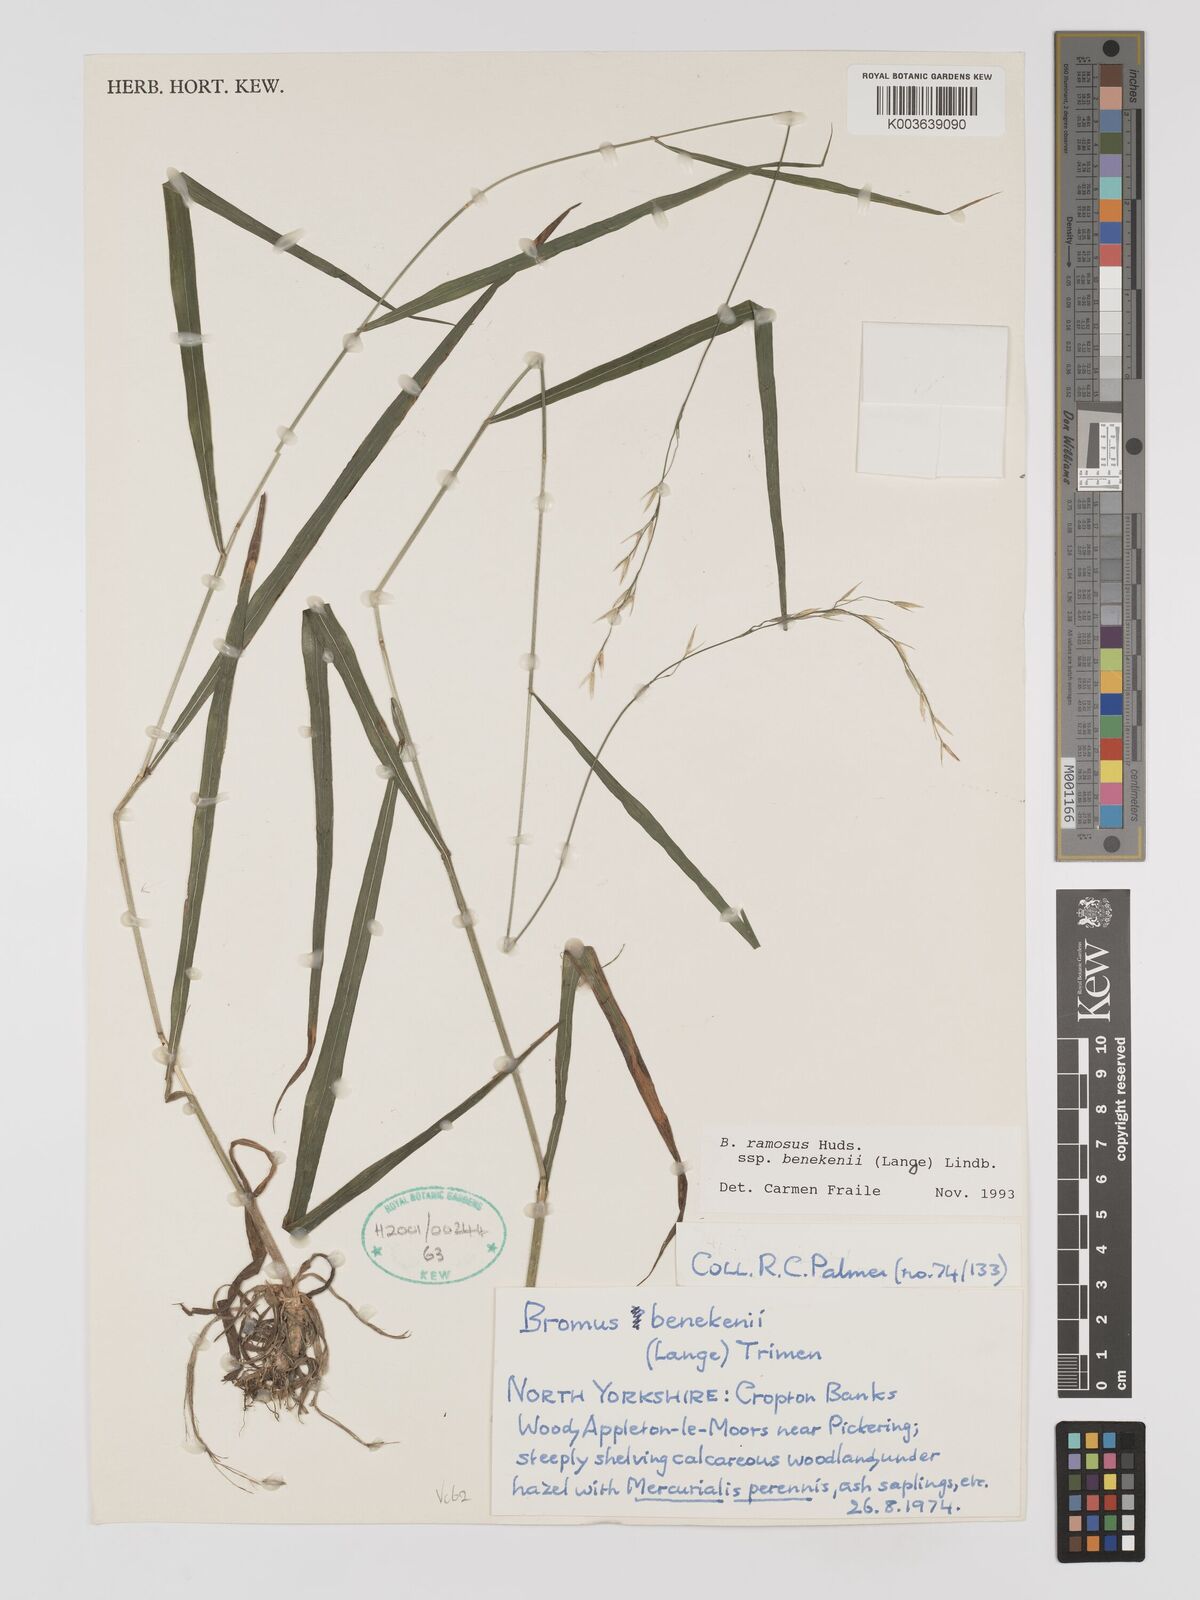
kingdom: Plantae
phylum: Tracheophyta
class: Liliopsida
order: Poales
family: Poaceae
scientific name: Poaceae
